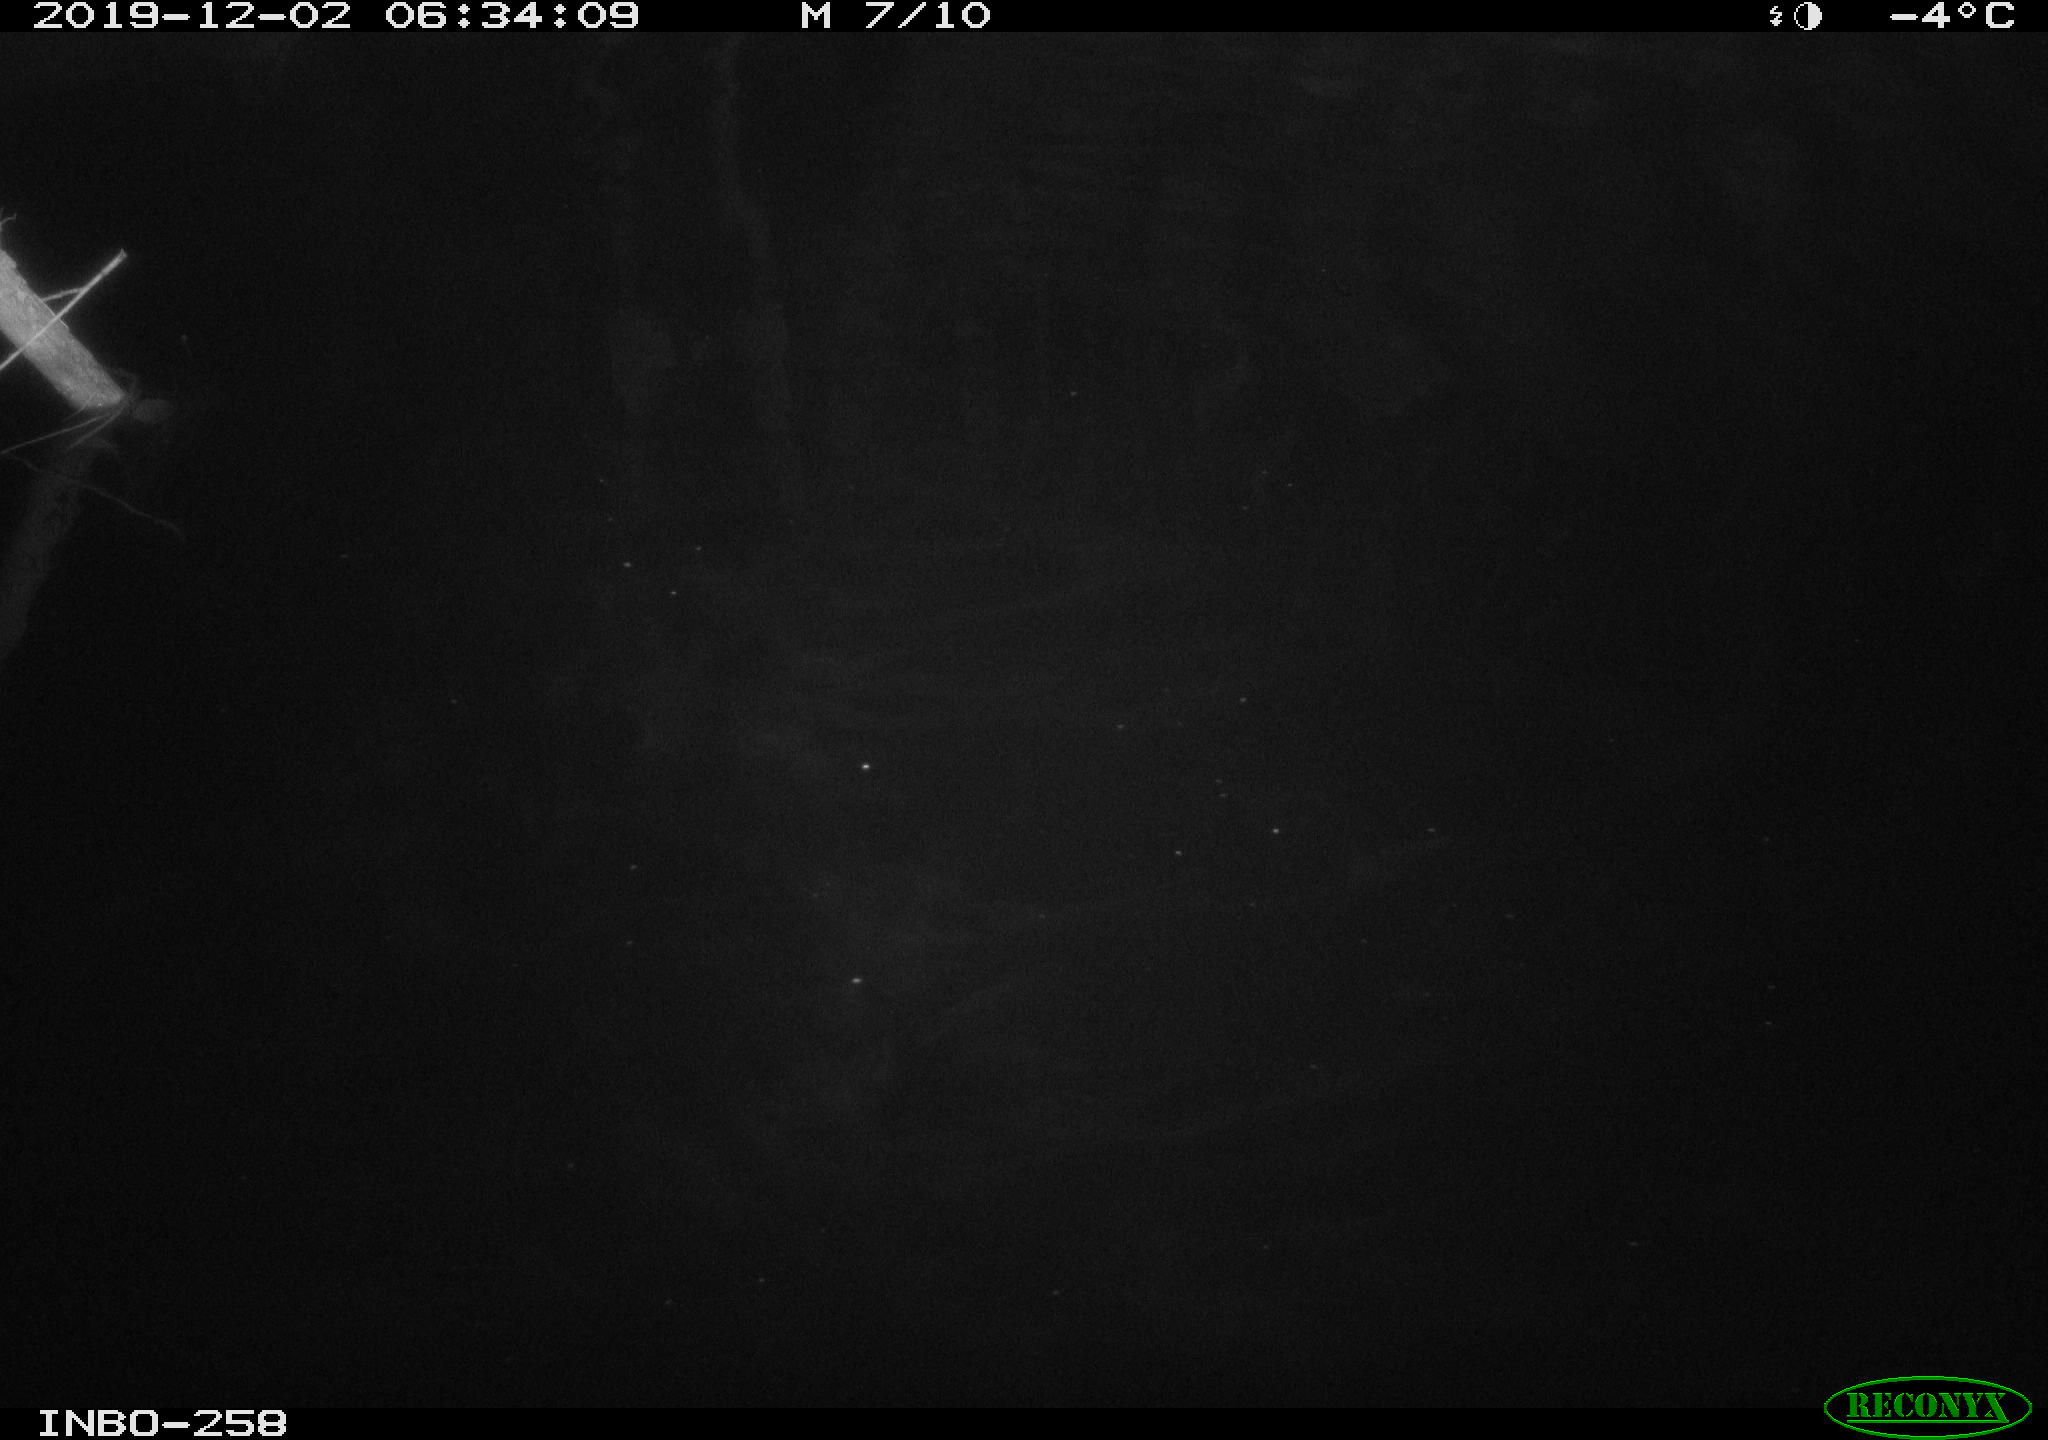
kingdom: Animalia
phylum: Chordata
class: Aves
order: Anseriformes
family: Anatidae
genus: Anas
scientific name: Anas platyrhynchos
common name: Mallard
